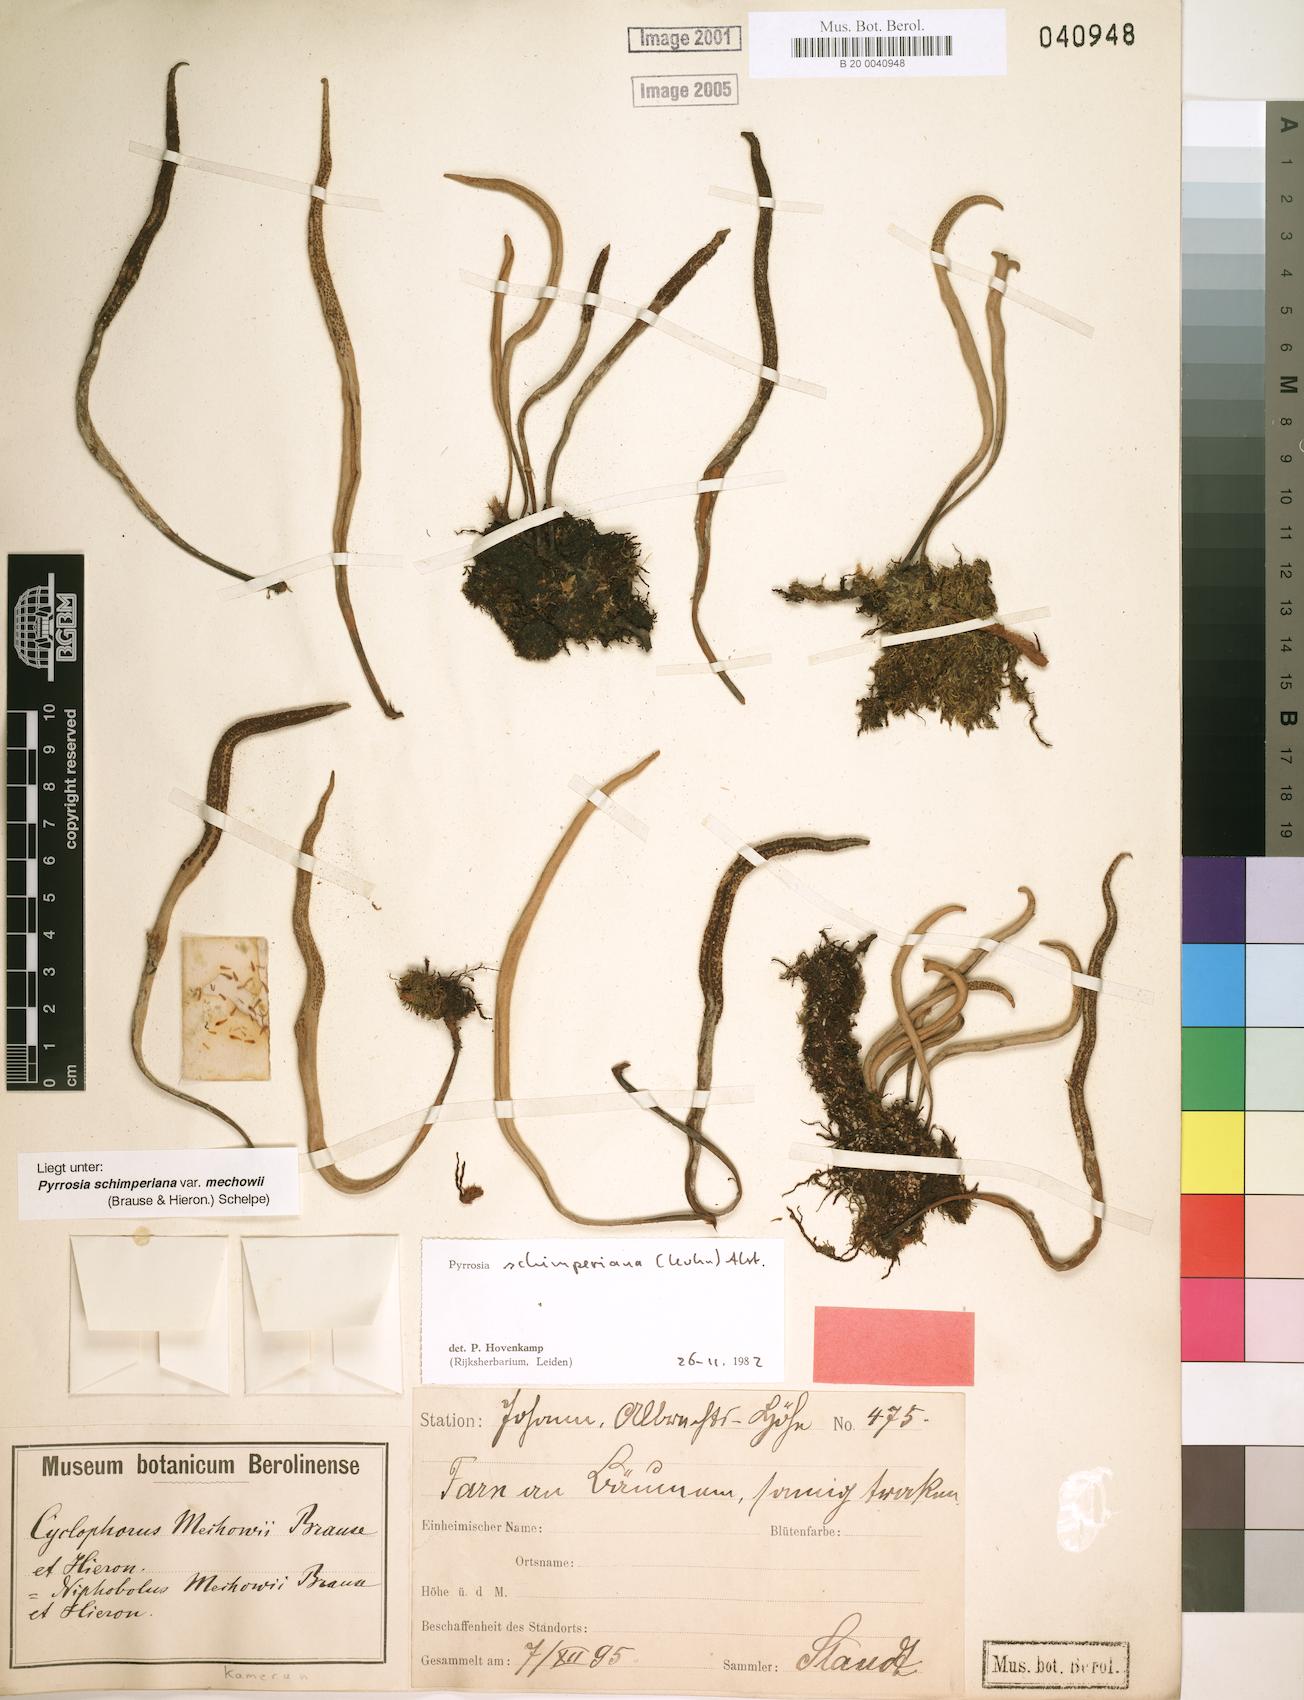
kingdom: Plantae
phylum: Tracheophyta
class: Polypodiopsida
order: Polypodiales
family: Polypodiaceae
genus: Hovenkampia
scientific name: Hovenkampia schimperiana
